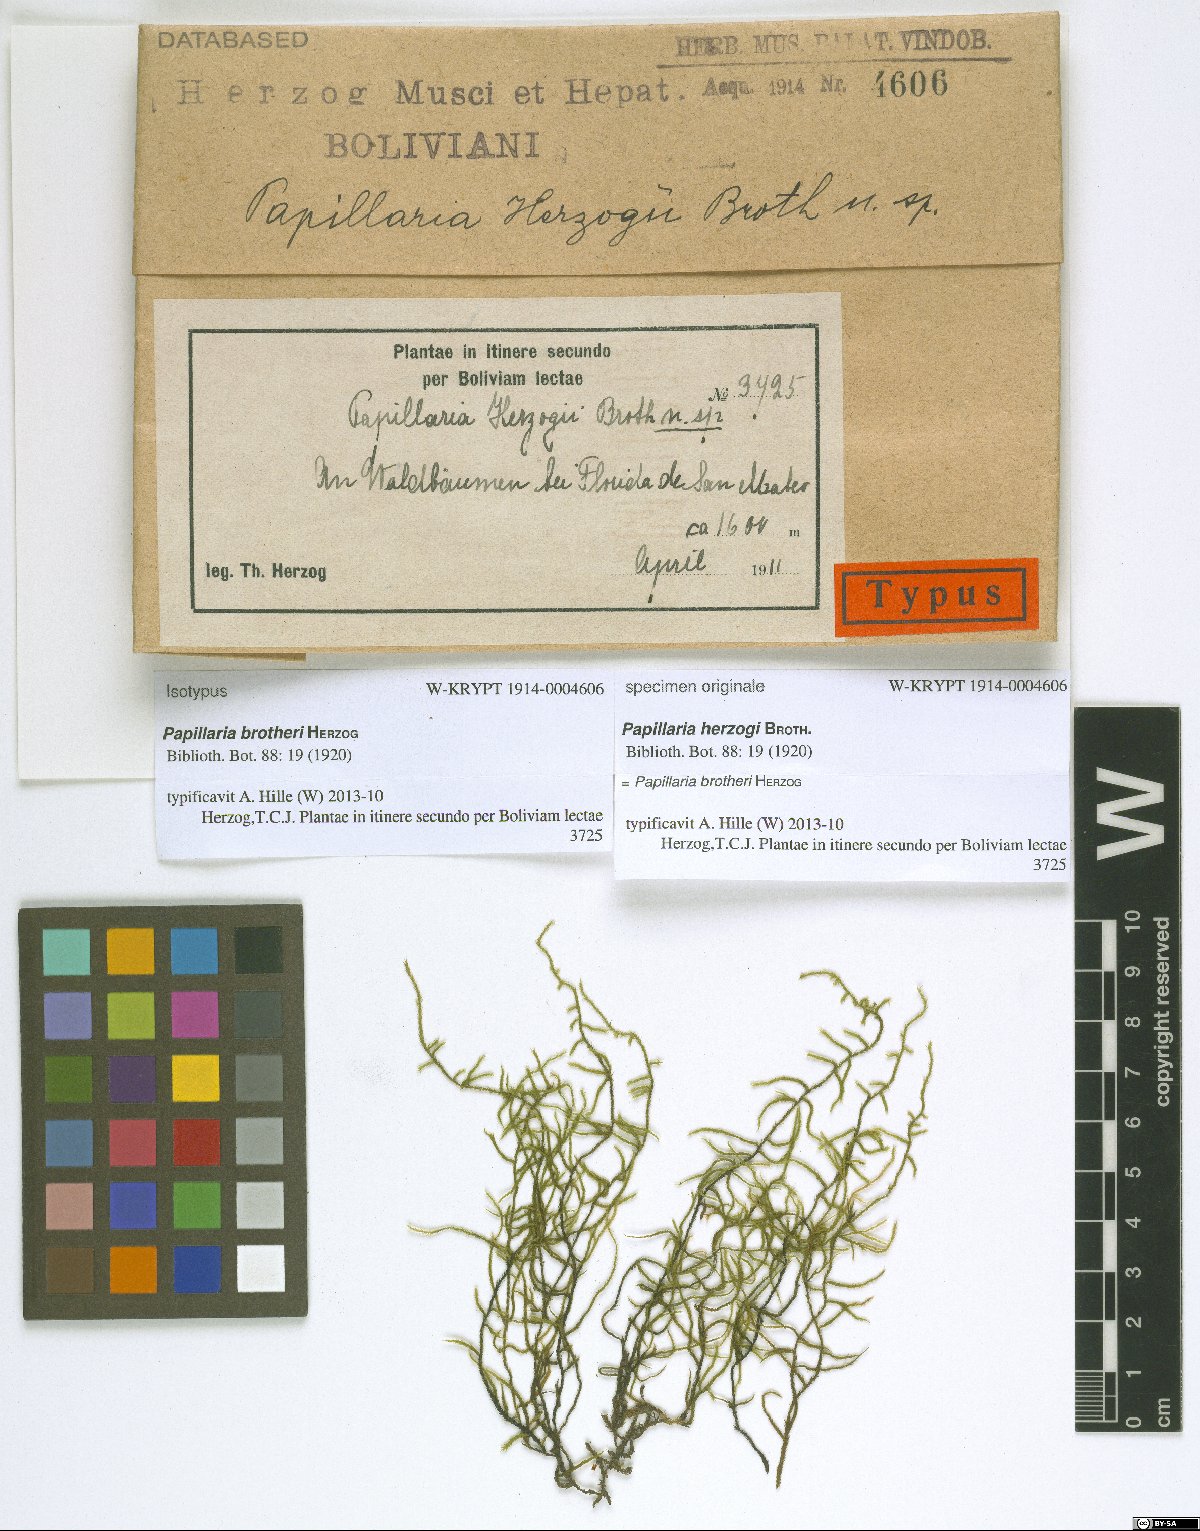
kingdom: Plantae
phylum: Bryophyta
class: Bryopsida
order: Hypnales
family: Meteoriaceae
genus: Papillaria
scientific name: Papillaria brotheri
